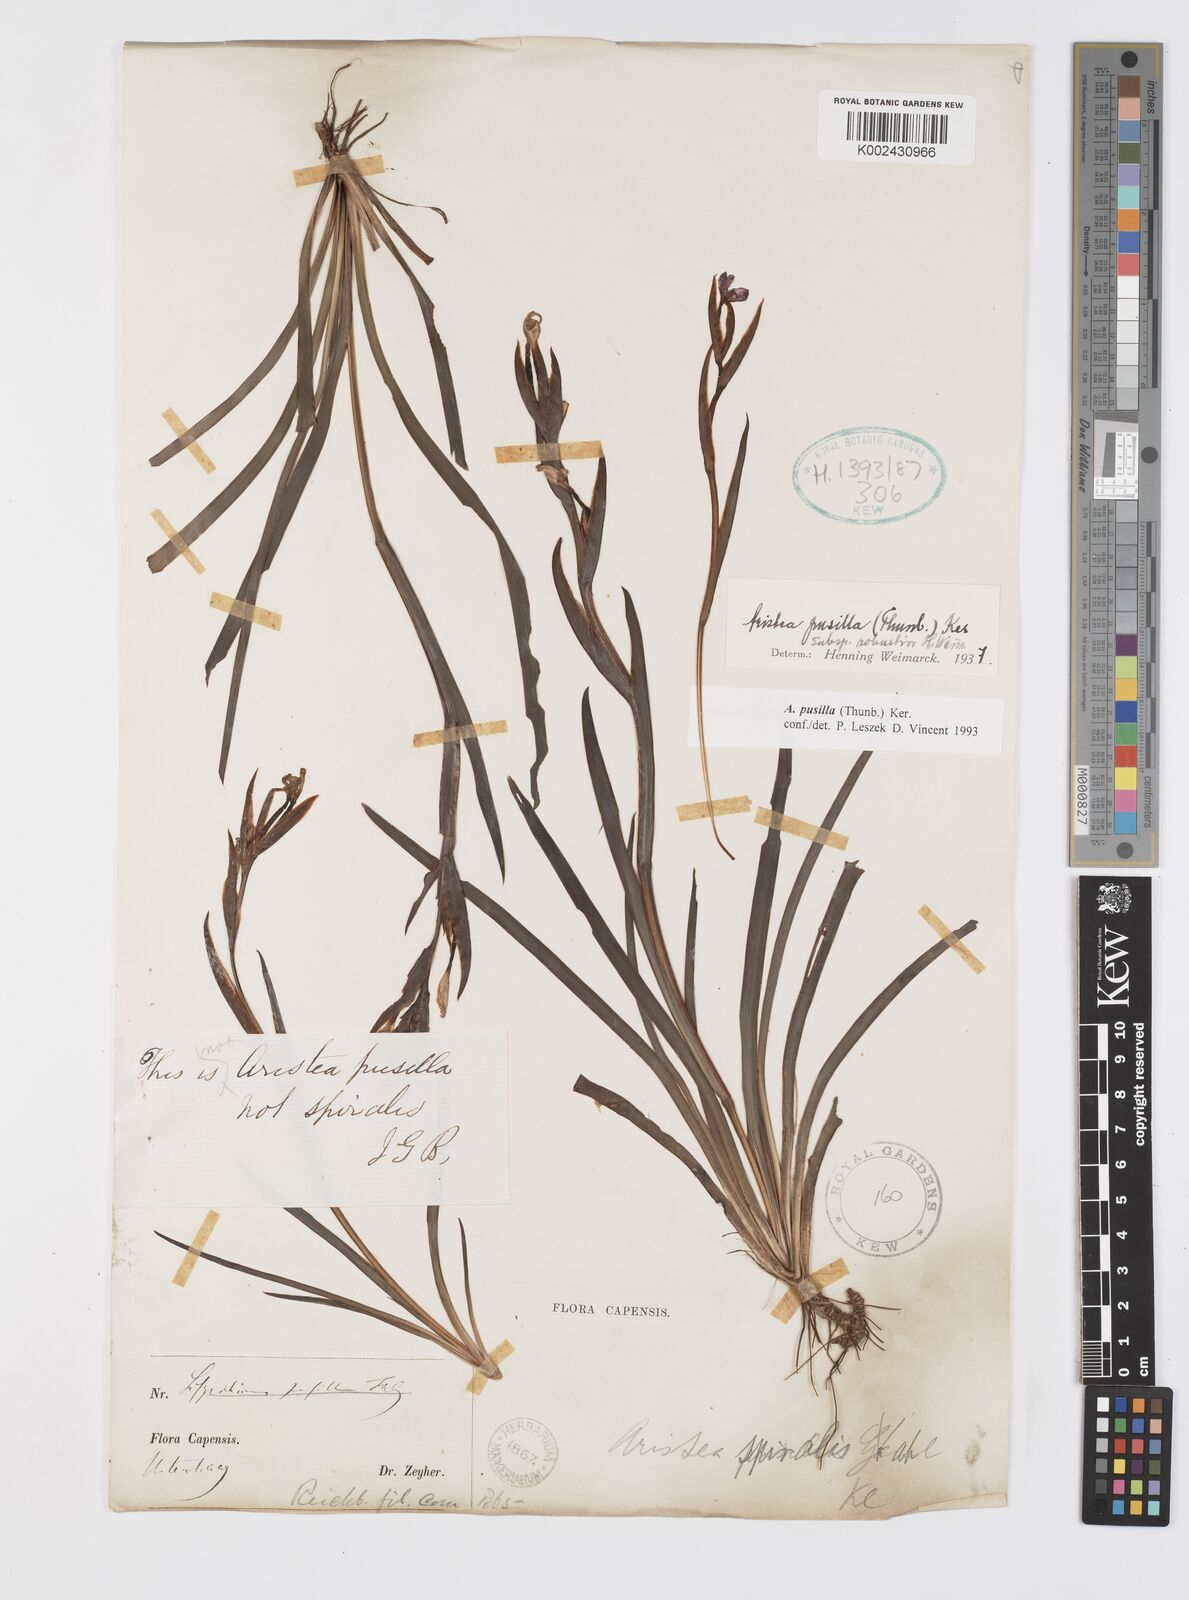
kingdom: Plantae
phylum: Tracheophyta
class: Liliopsida
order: Asparagales
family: Iridaceae
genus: Aristea
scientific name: Aristea pusilla
